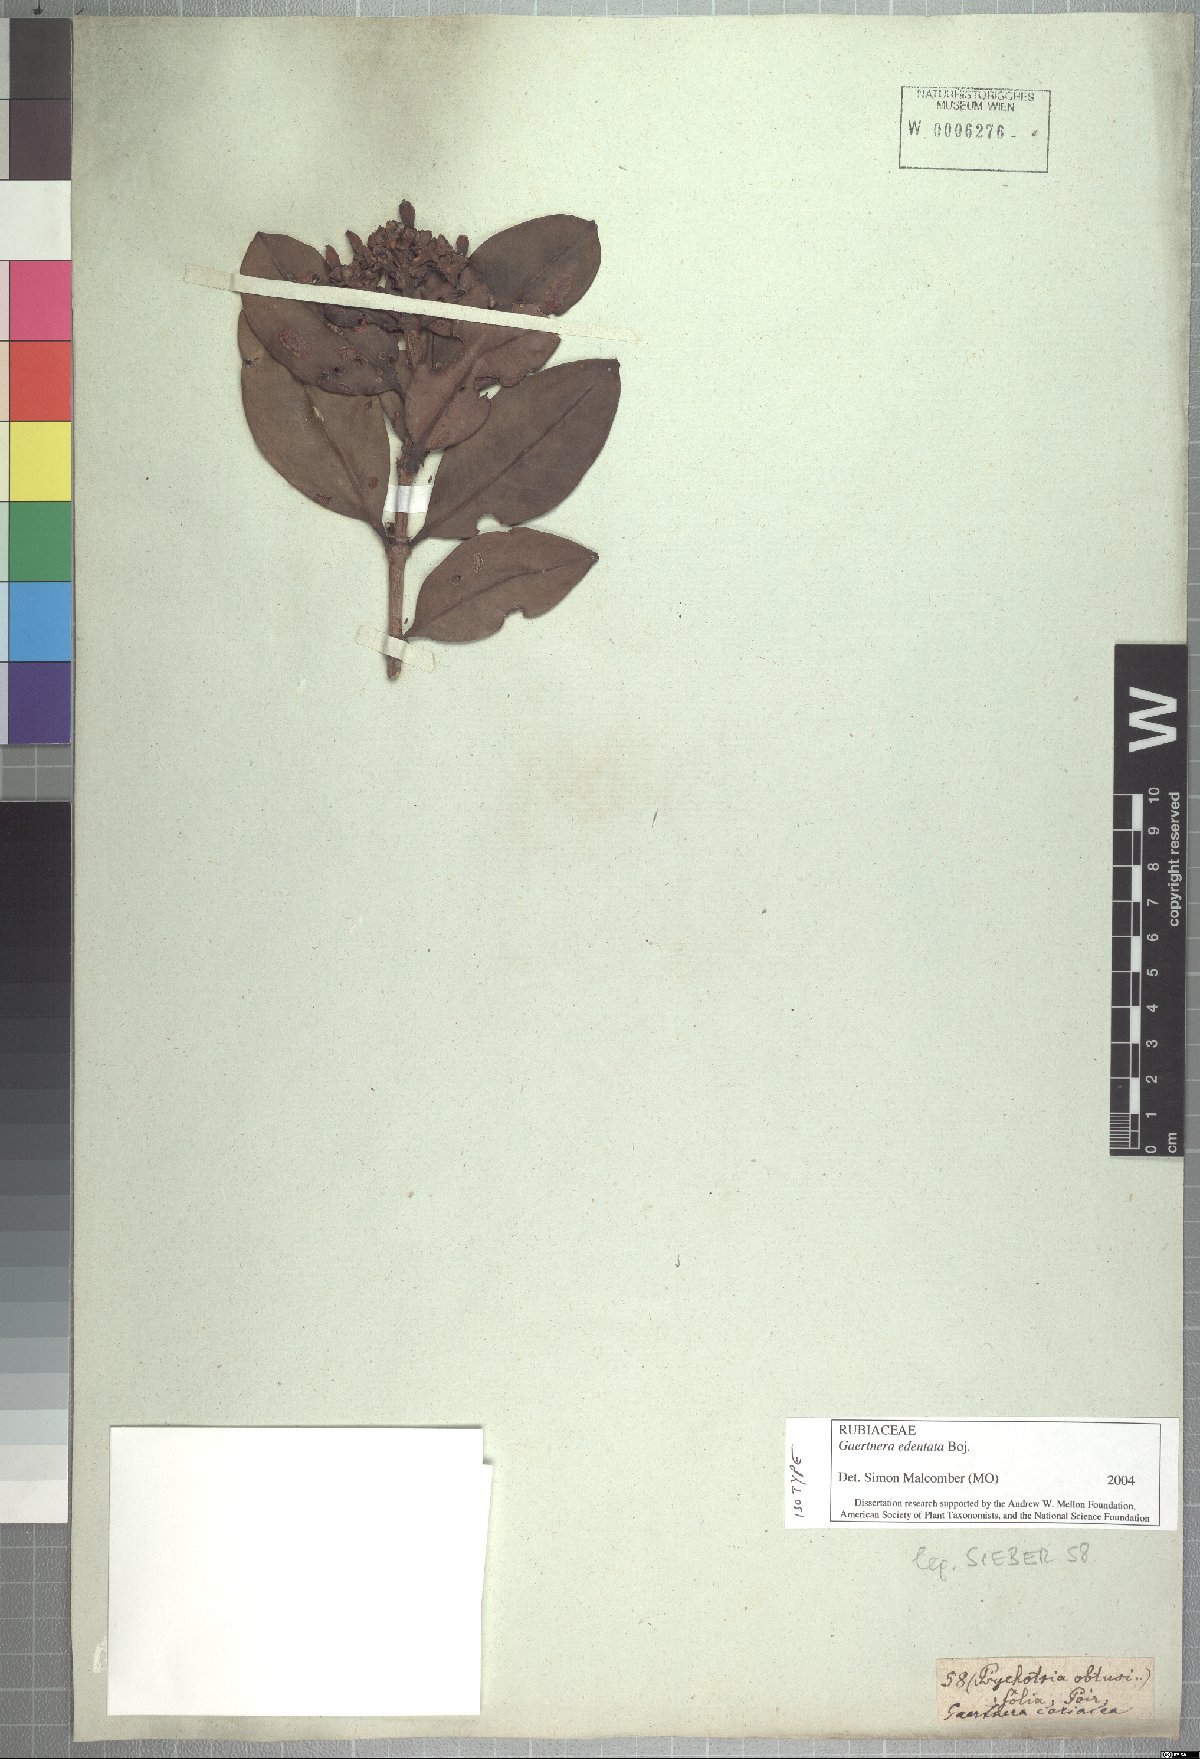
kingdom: Plantae
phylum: Tracheophyta
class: Magnoliopsida
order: Gentianales
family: Rubiaceae
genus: Gaertnera
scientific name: Gaertnera edentata
